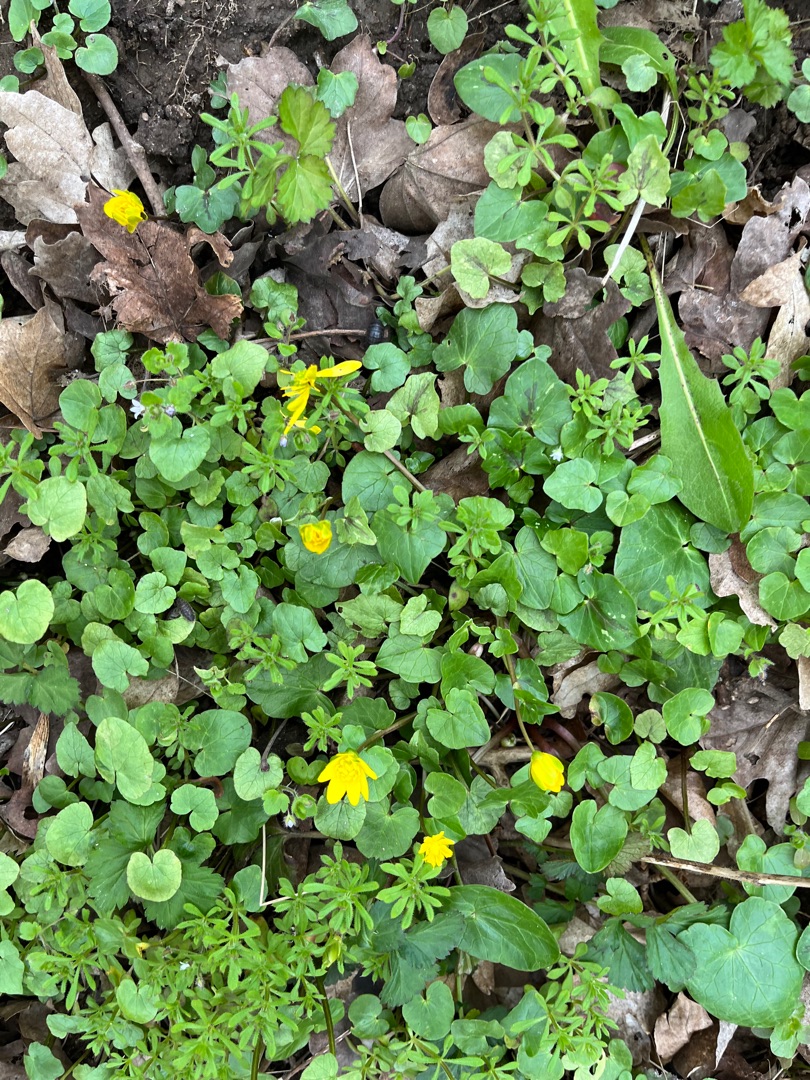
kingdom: Plantae
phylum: Tracheophyta
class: Magnoliopsida
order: Ranunculales
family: Ranunculaceae
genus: Ficaria
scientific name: Ficaria verna
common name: Vorterod
